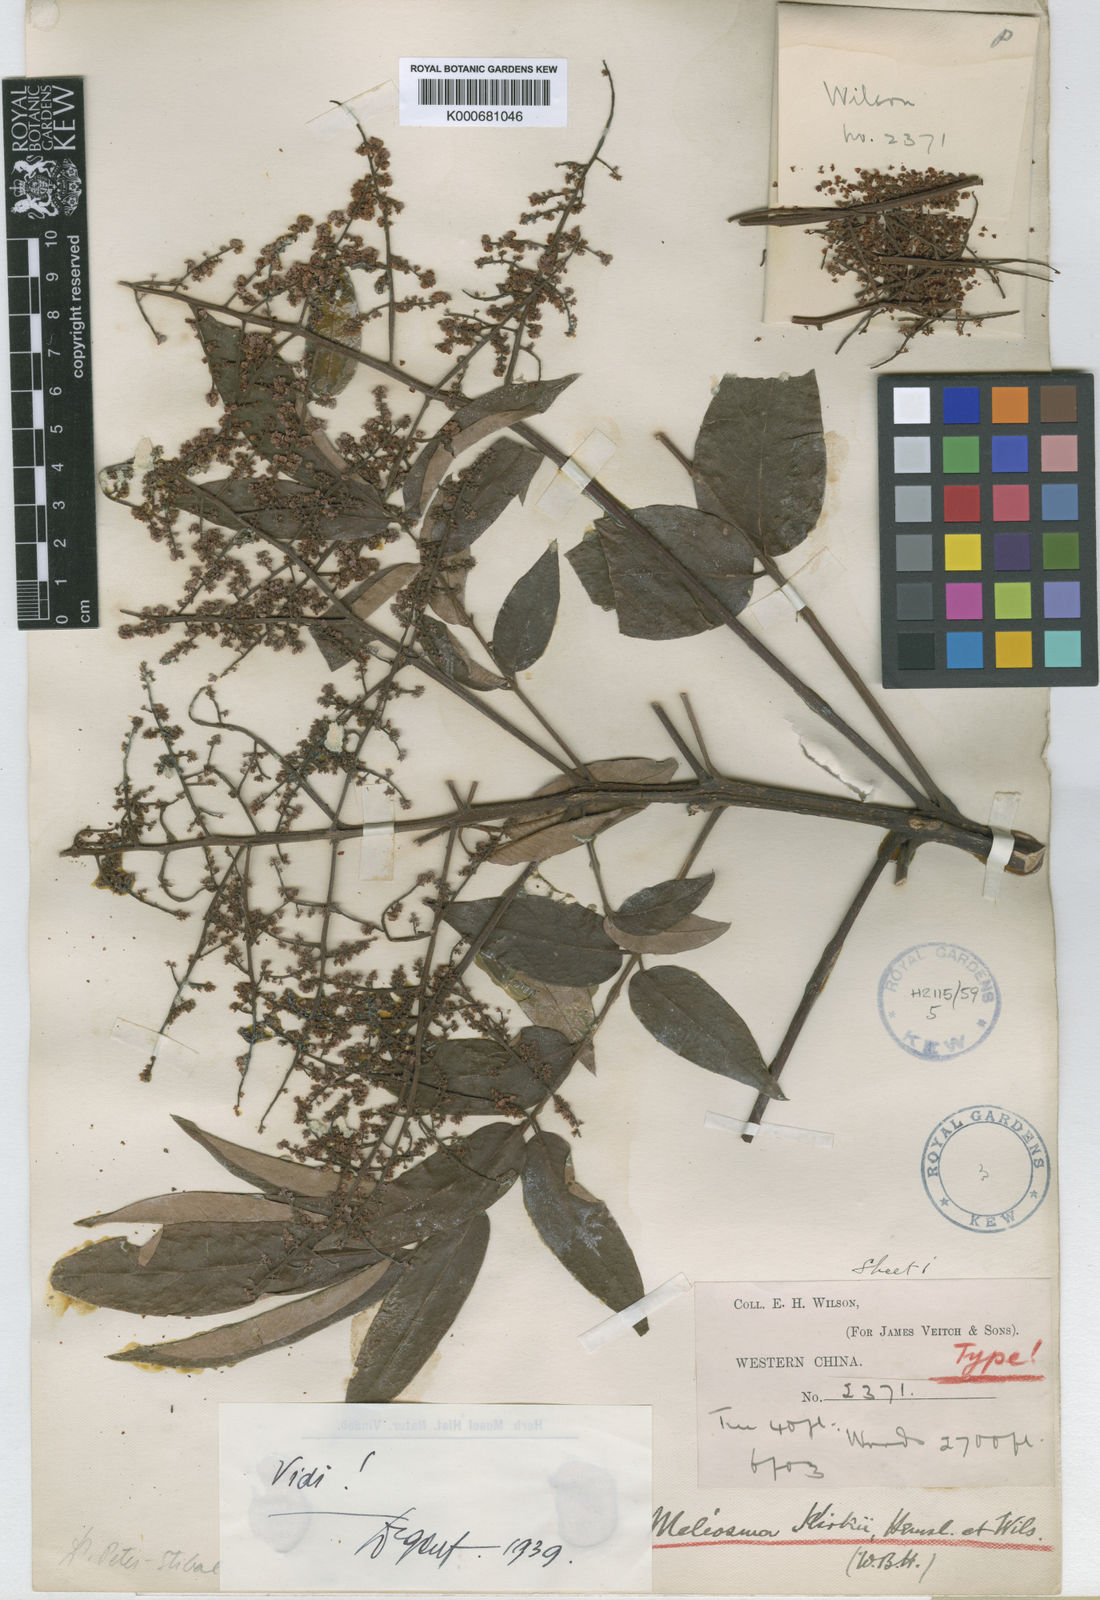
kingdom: Plantae
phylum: Tracheophyta
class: Magnoliopsida
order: Proteales
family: Sabiaceae
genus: Meliosma
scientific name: Meliosma pinnata
